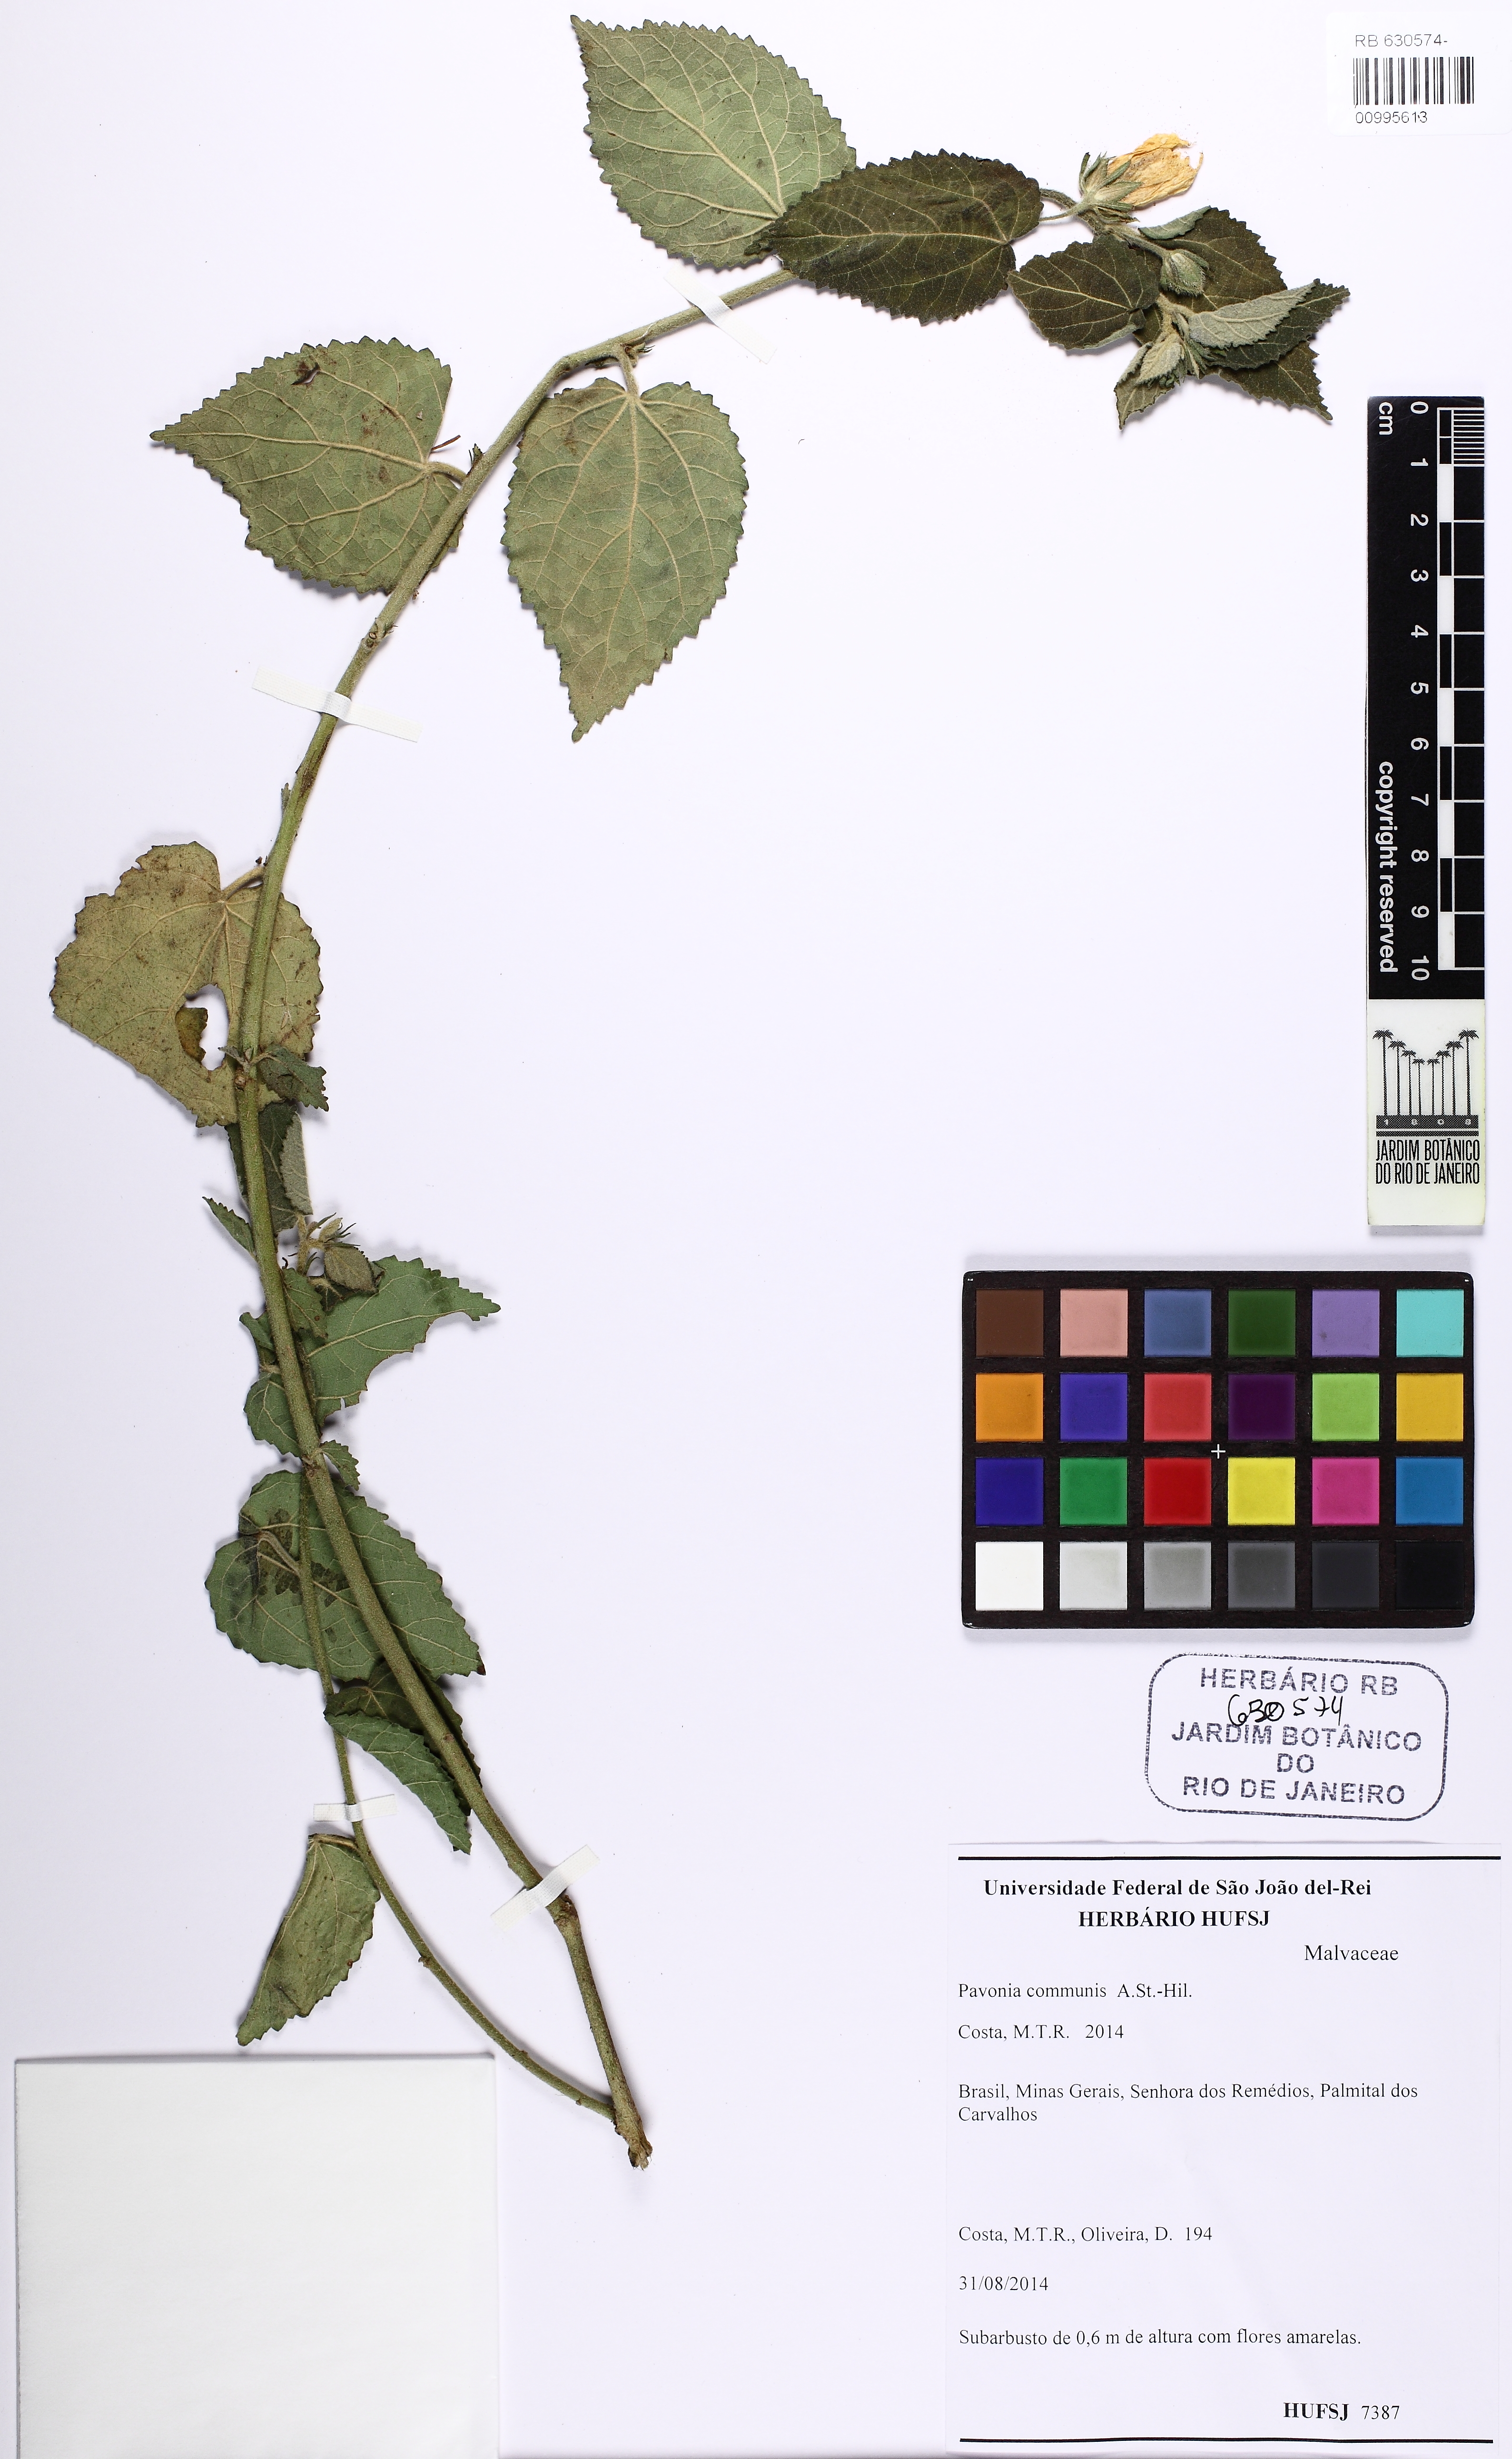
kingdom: Plantae
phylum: Tracheophyta
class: Magnoliopsida
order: Malvales
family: Malvaceae
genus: Pavonia
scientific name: Pavonia communis
